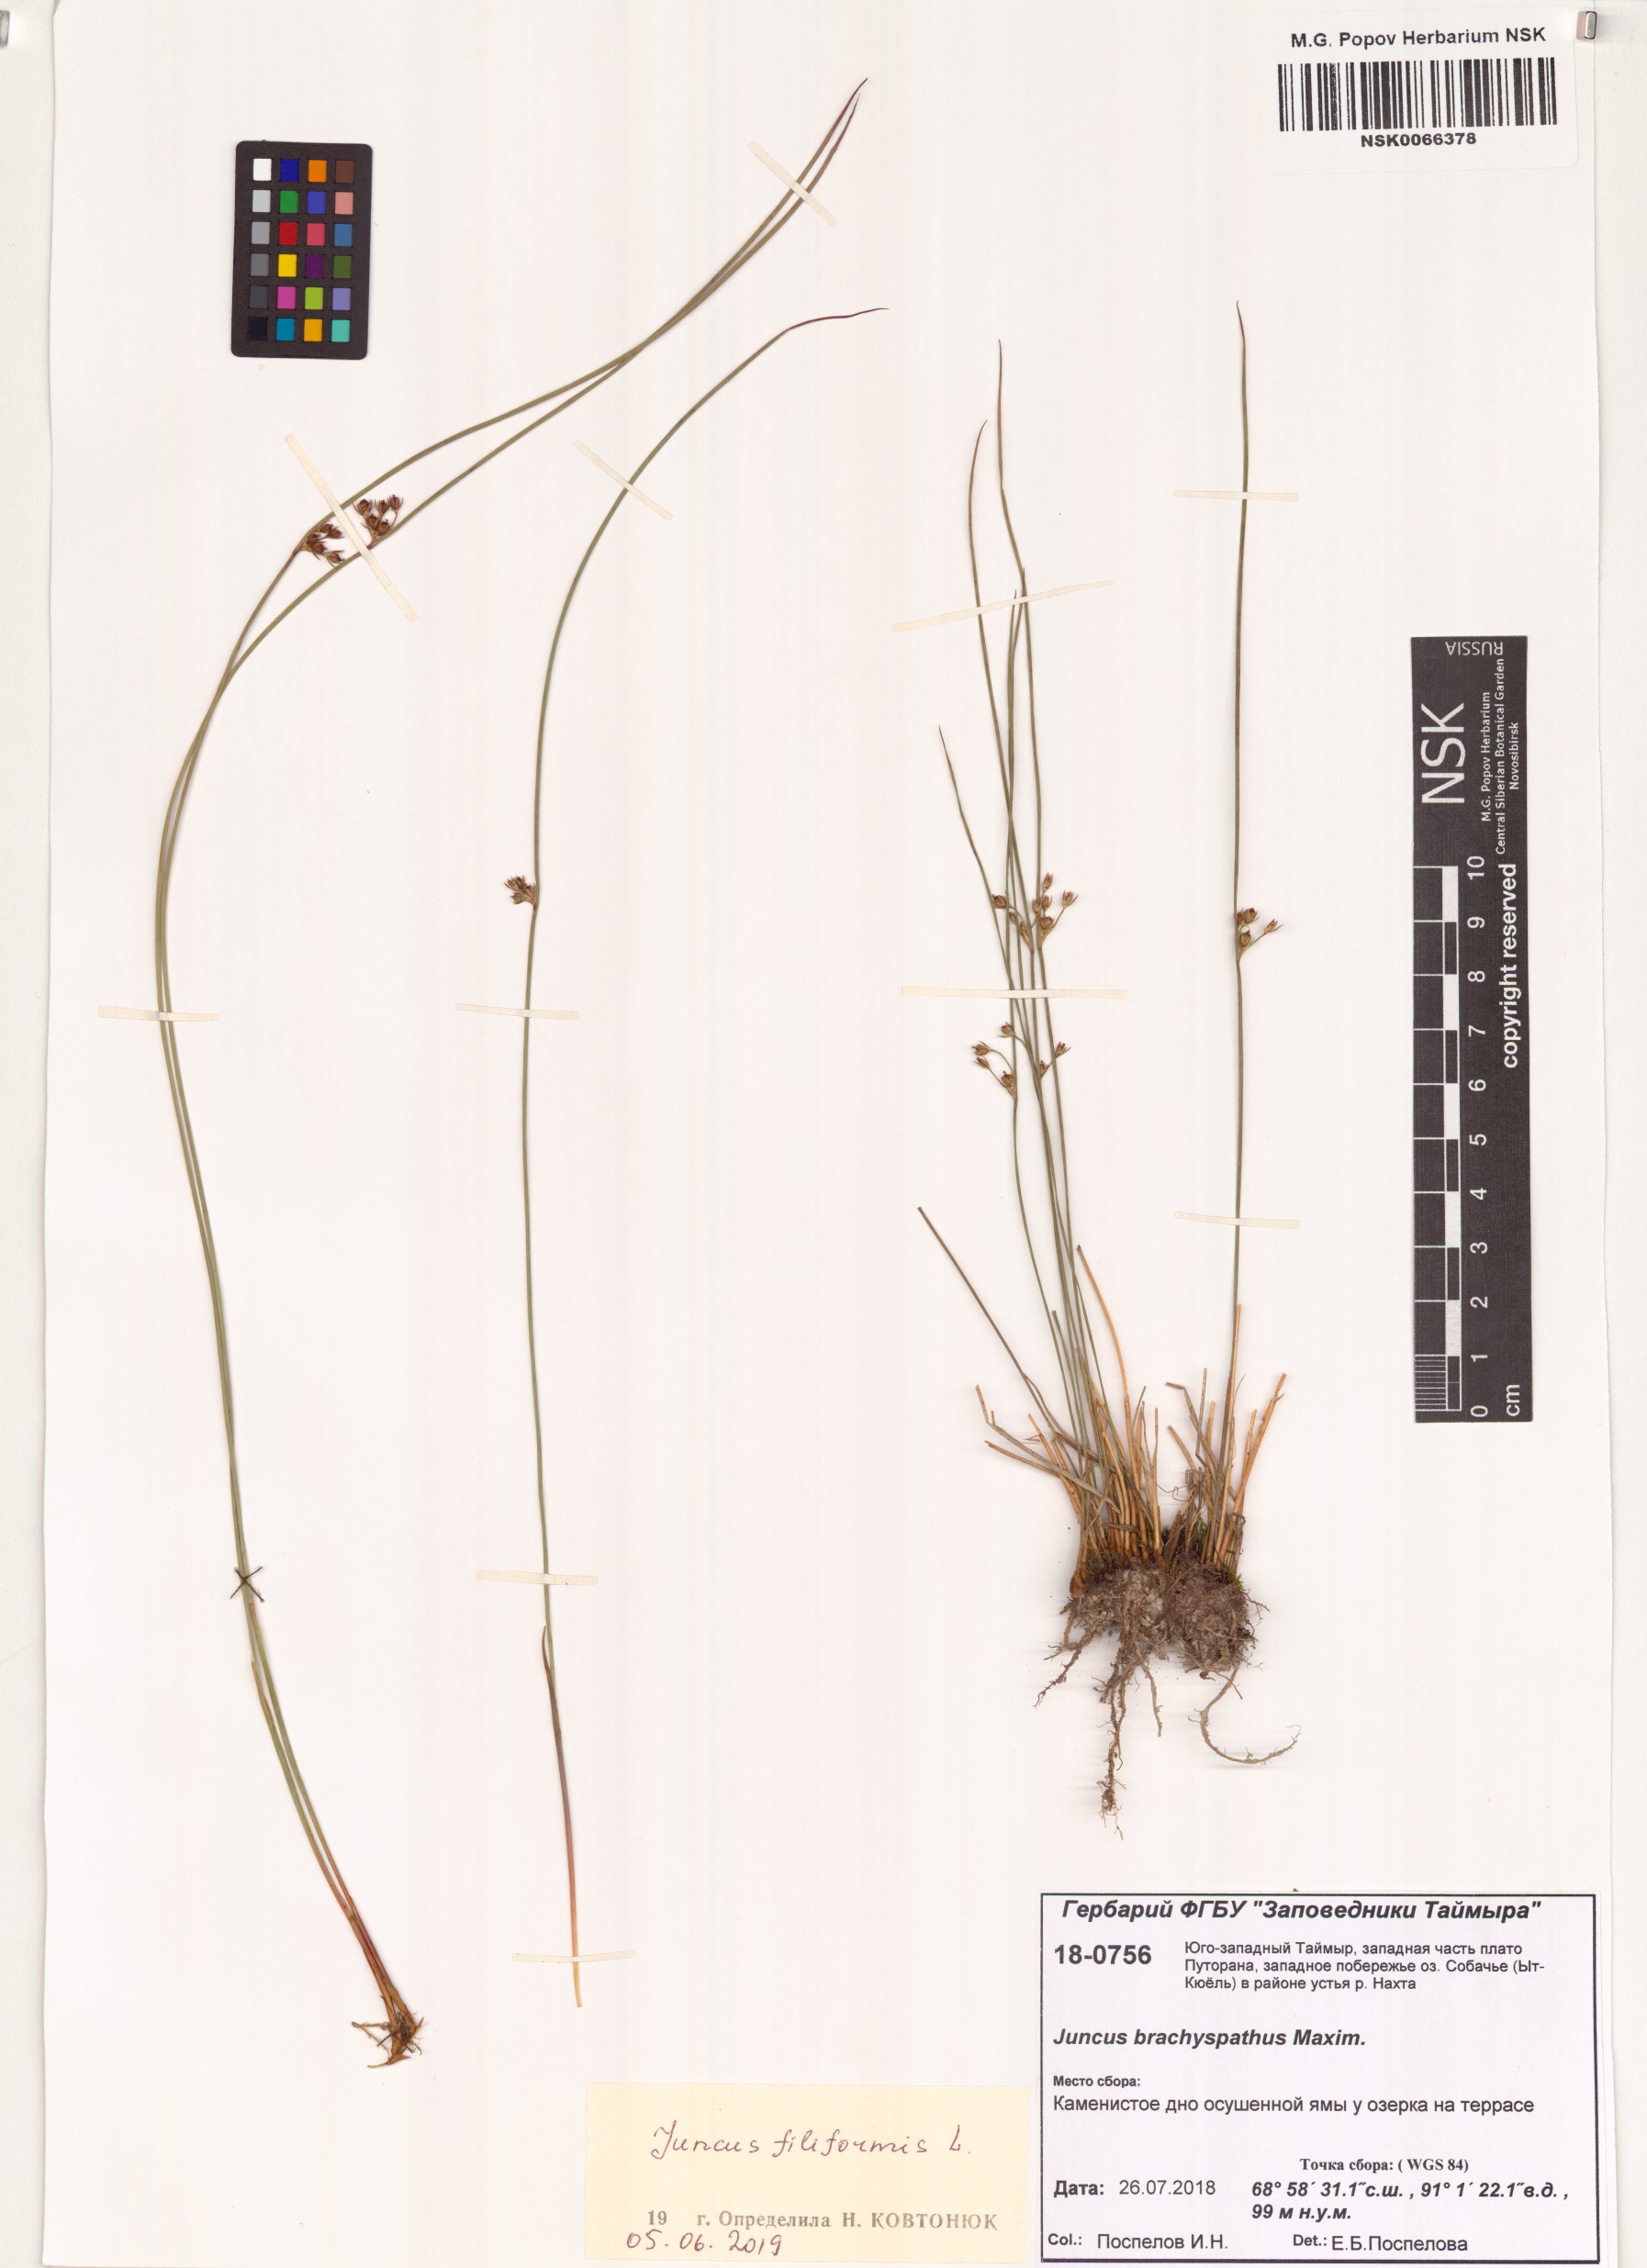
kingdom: Plantae
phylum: Tracheophyta
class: Liliopsida
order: Poales
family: Juncaceae
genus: Juncus
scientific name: Juncus filiformis
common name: Thread rush
